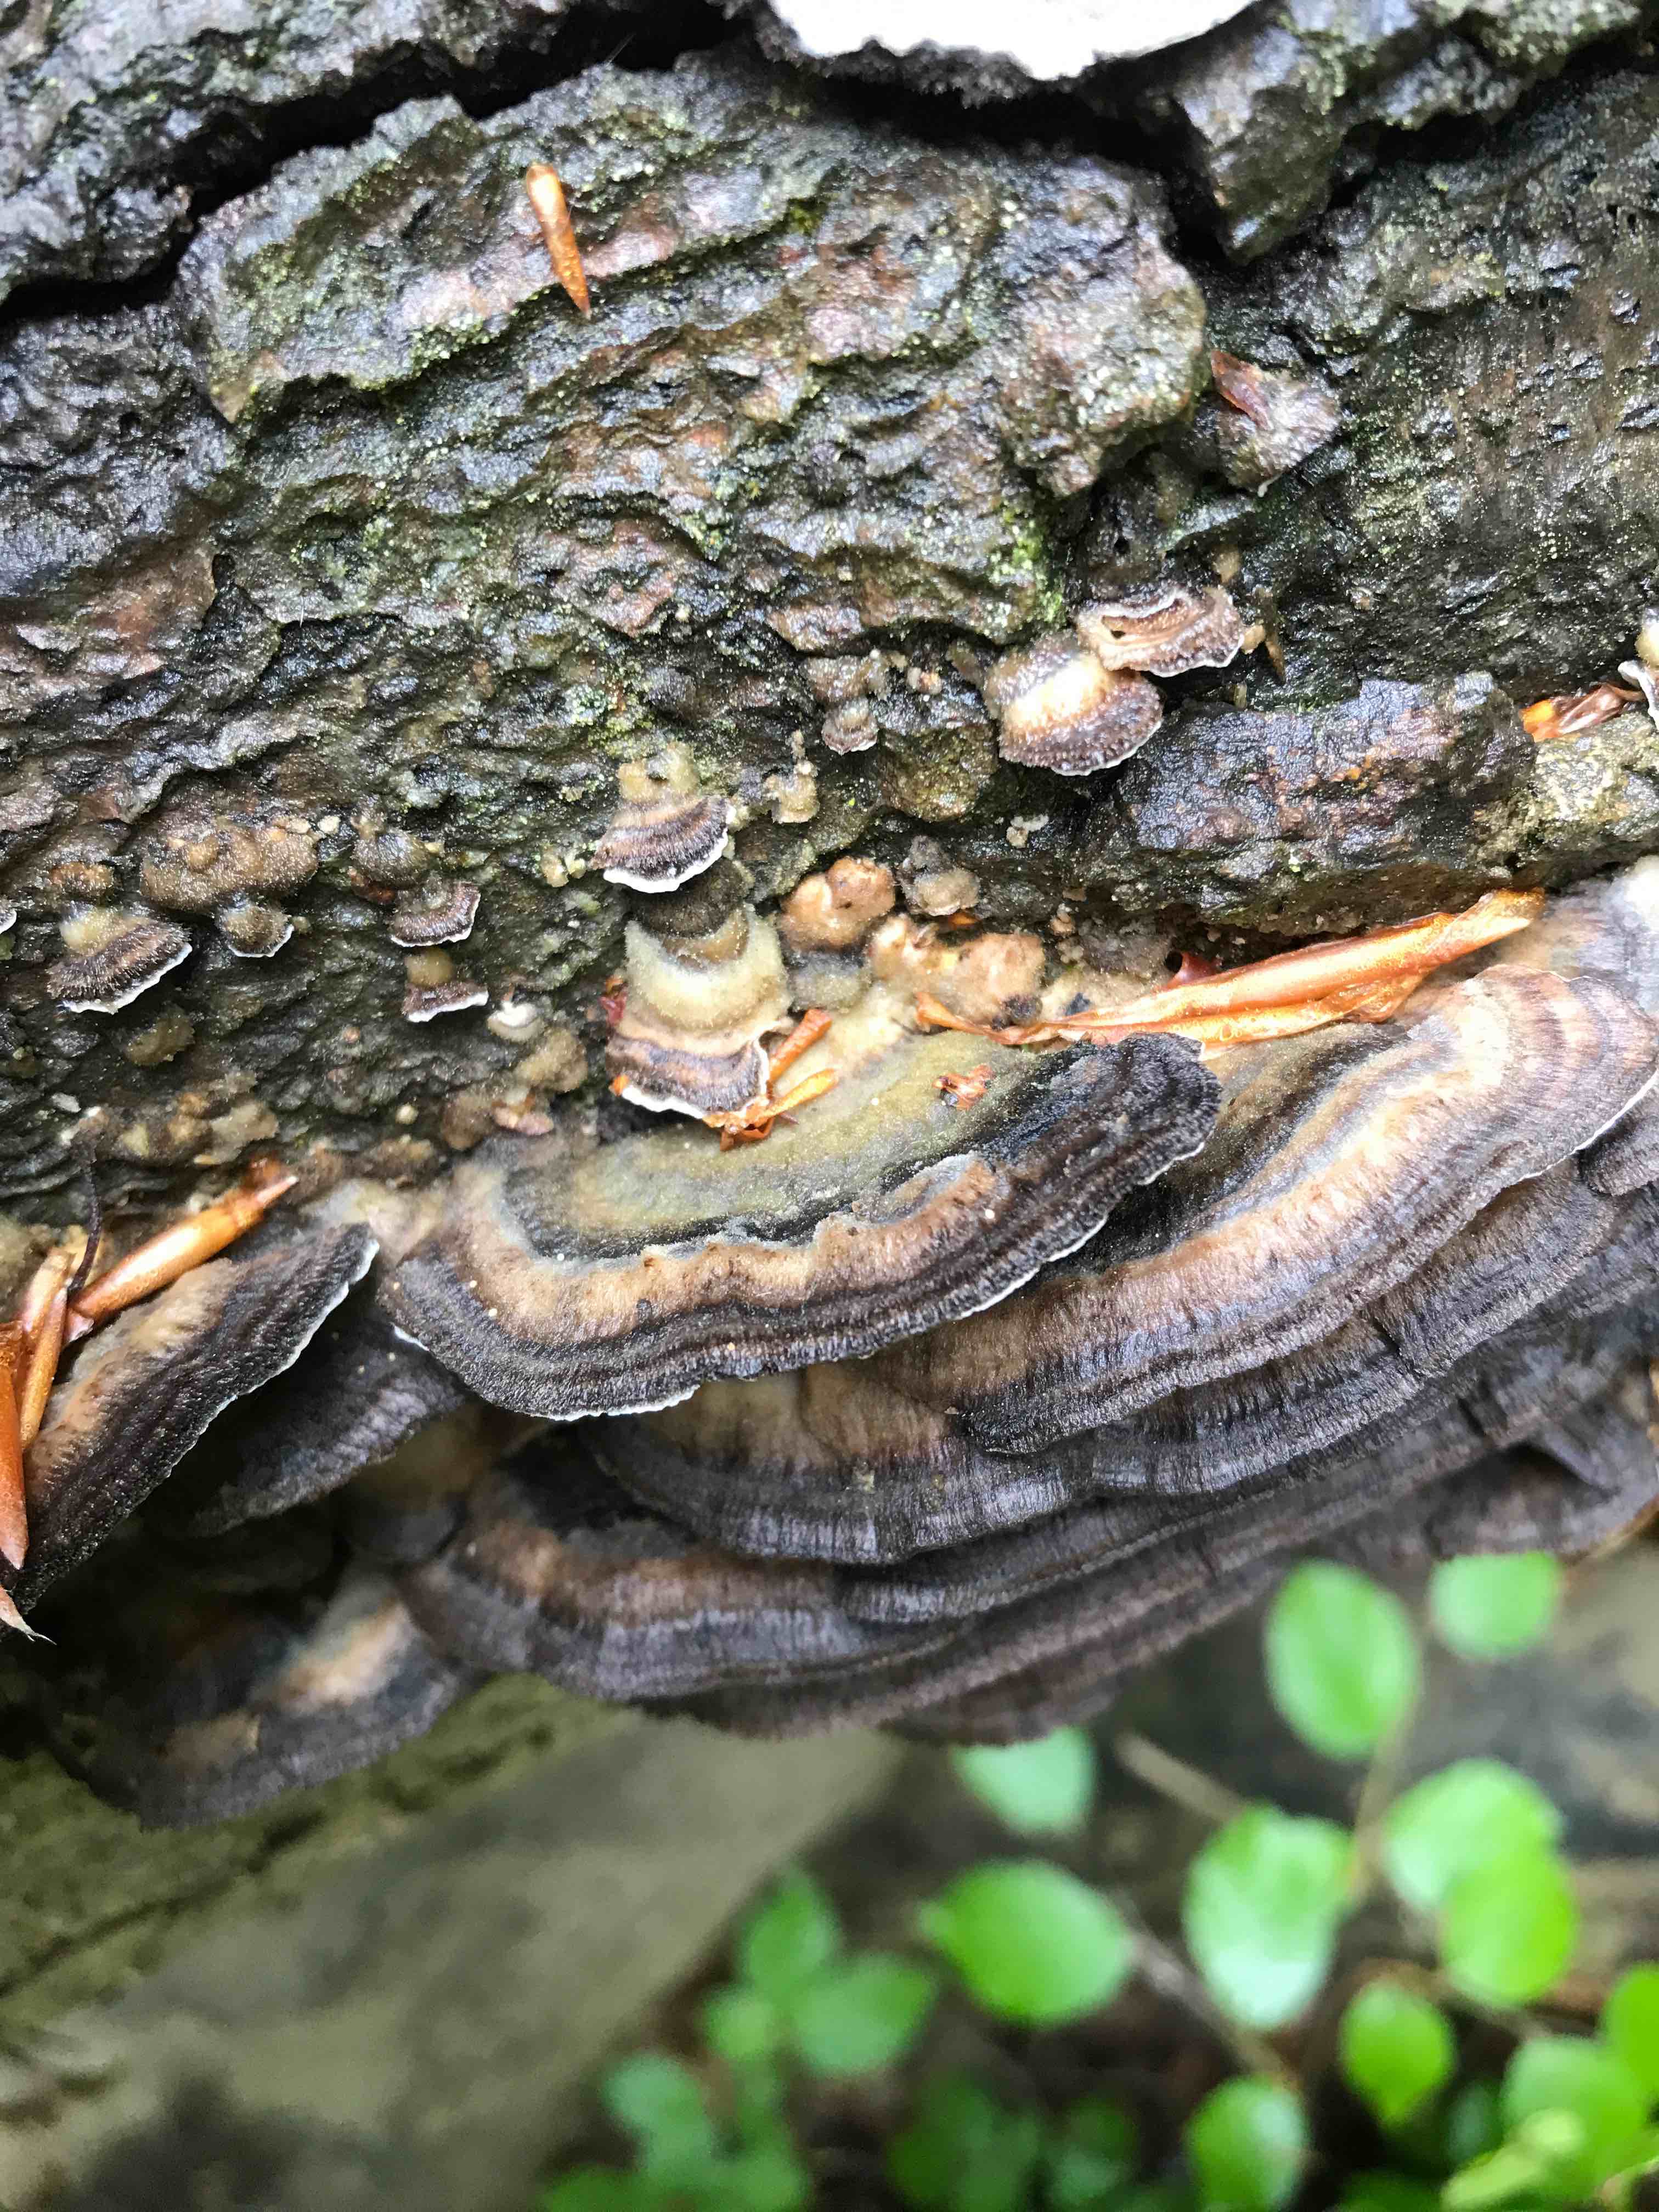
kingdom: Fungi
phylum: Basidiomycota
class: Agaricomycetes
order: Polyporales
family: Polyporaceae
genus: Trametes
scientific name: Trametes versicolor
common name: broget læderporesvamp
